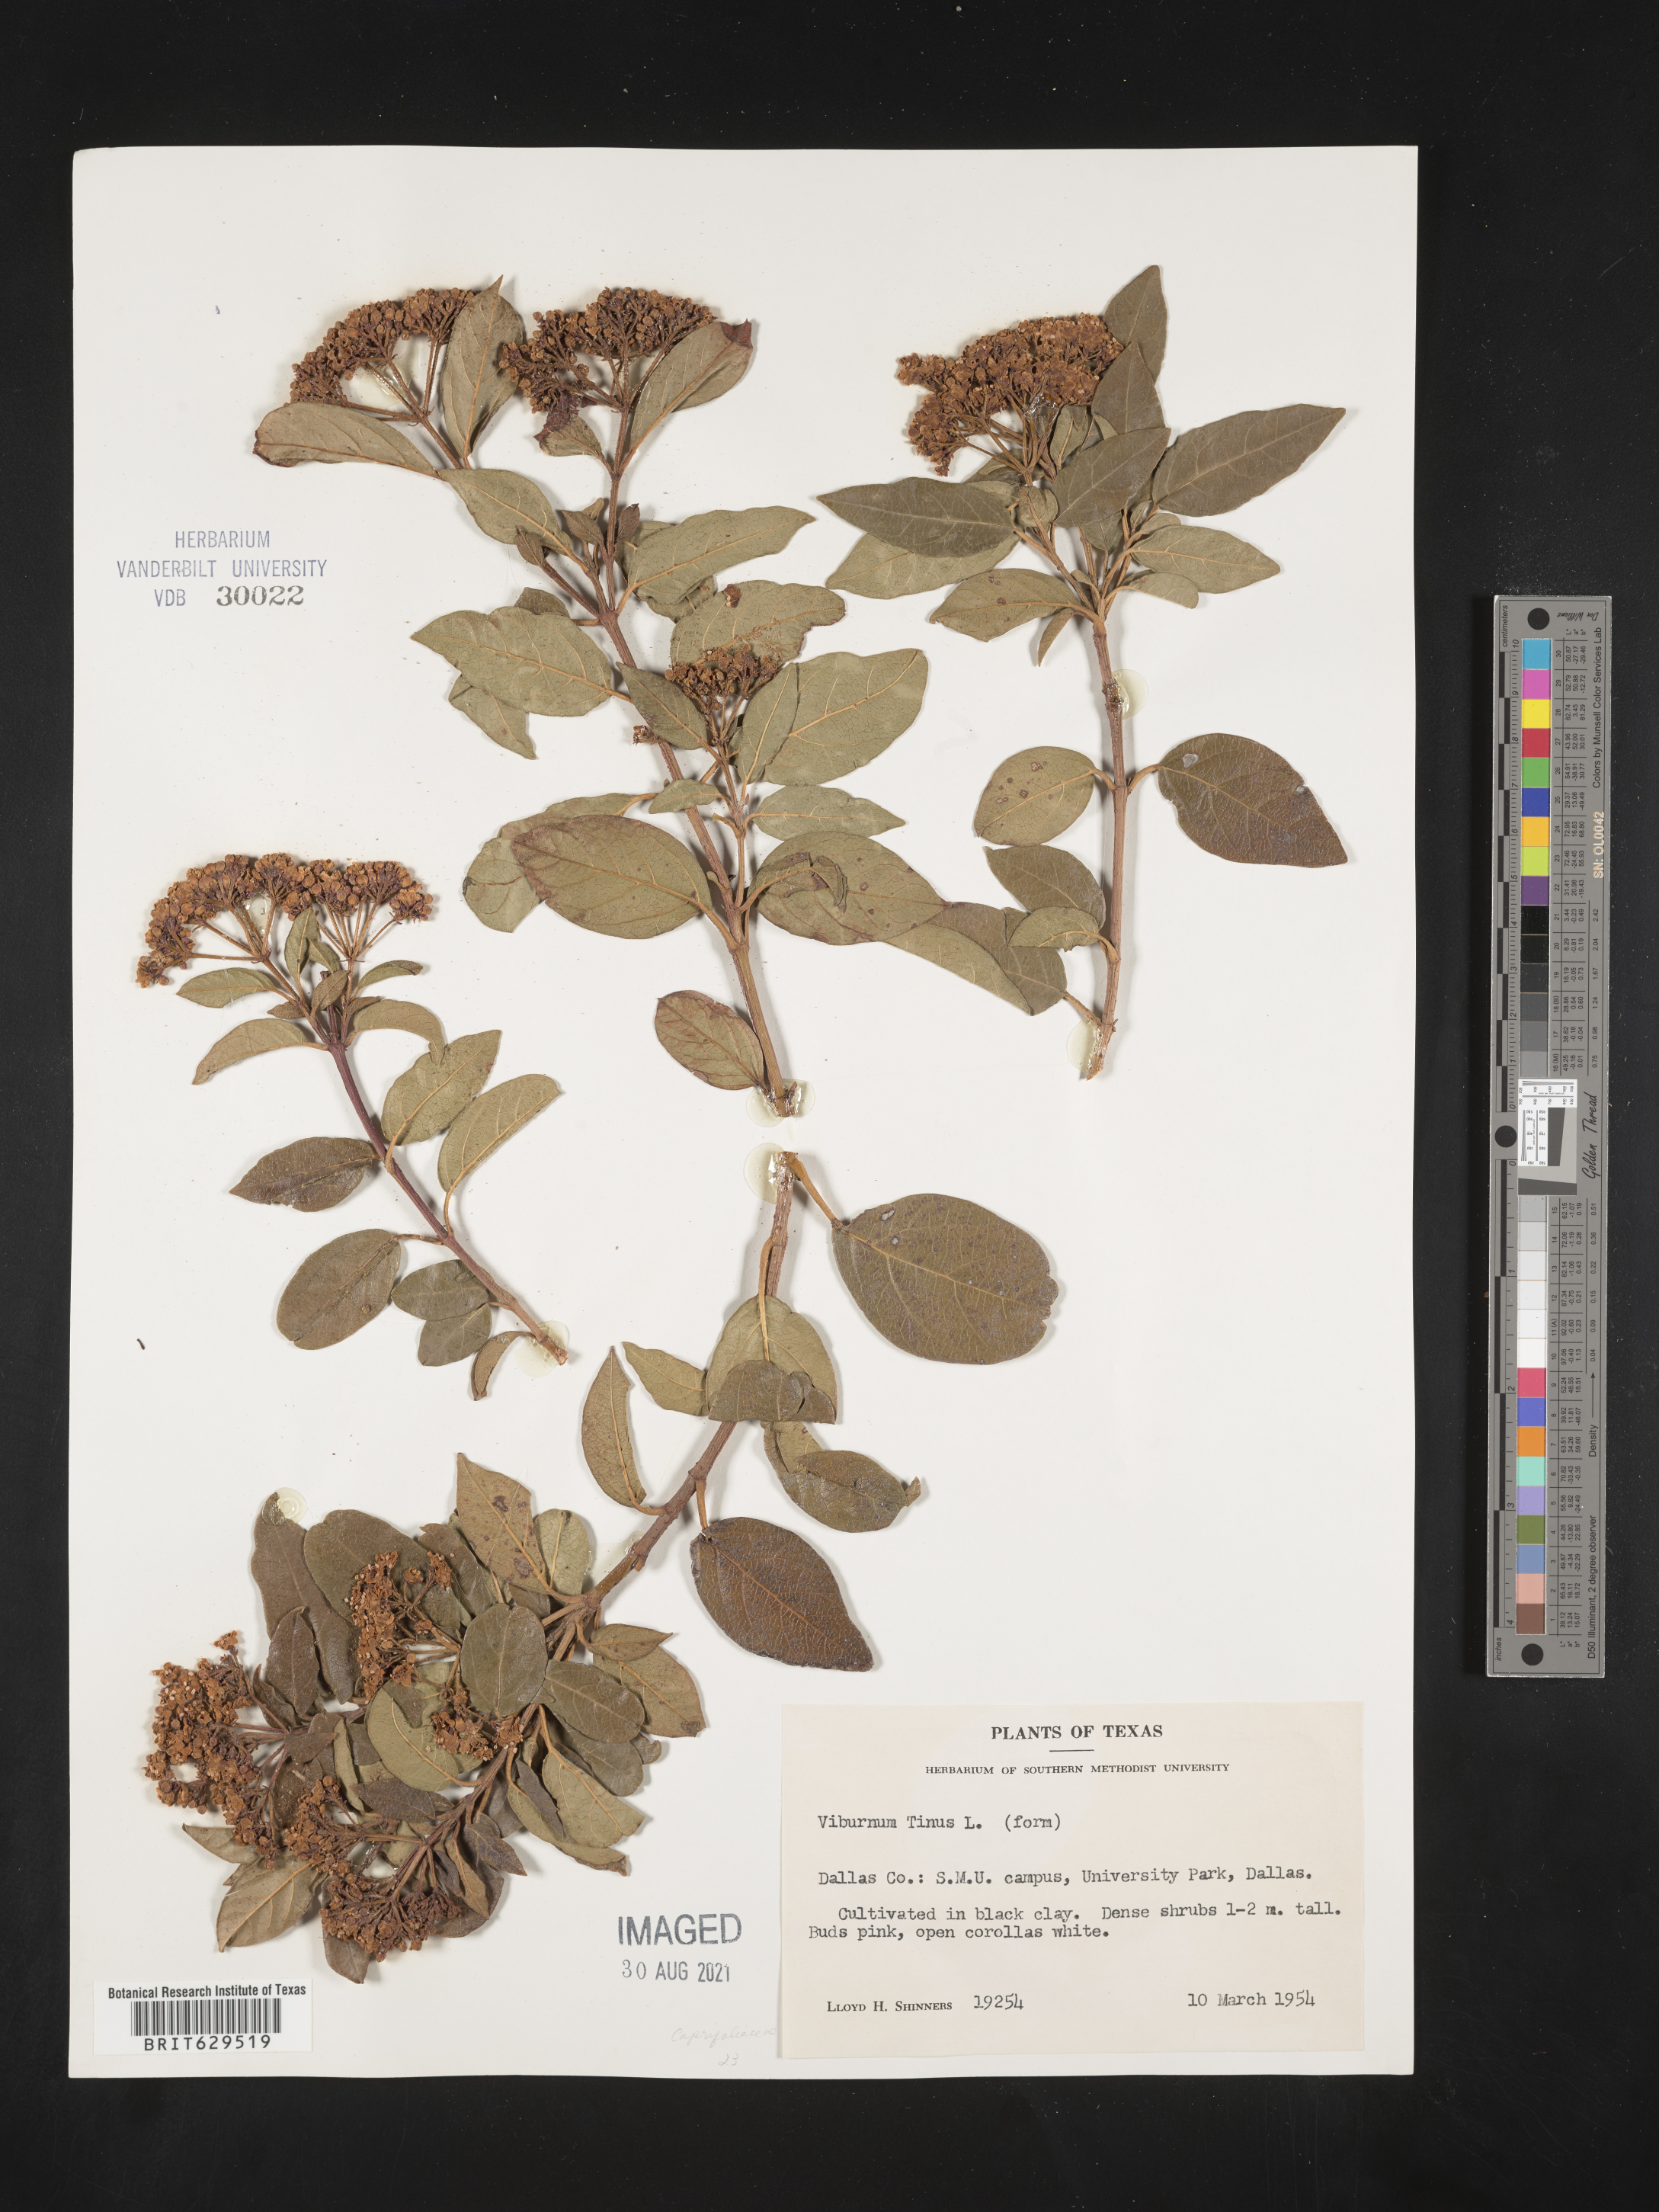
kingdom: Plantae
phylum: Tracheophyta
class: Magnoliopsida
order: Dipsacales
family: Viburnaceae
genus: Viburnum
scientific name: Viburnum tinus
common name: Laurustinus
